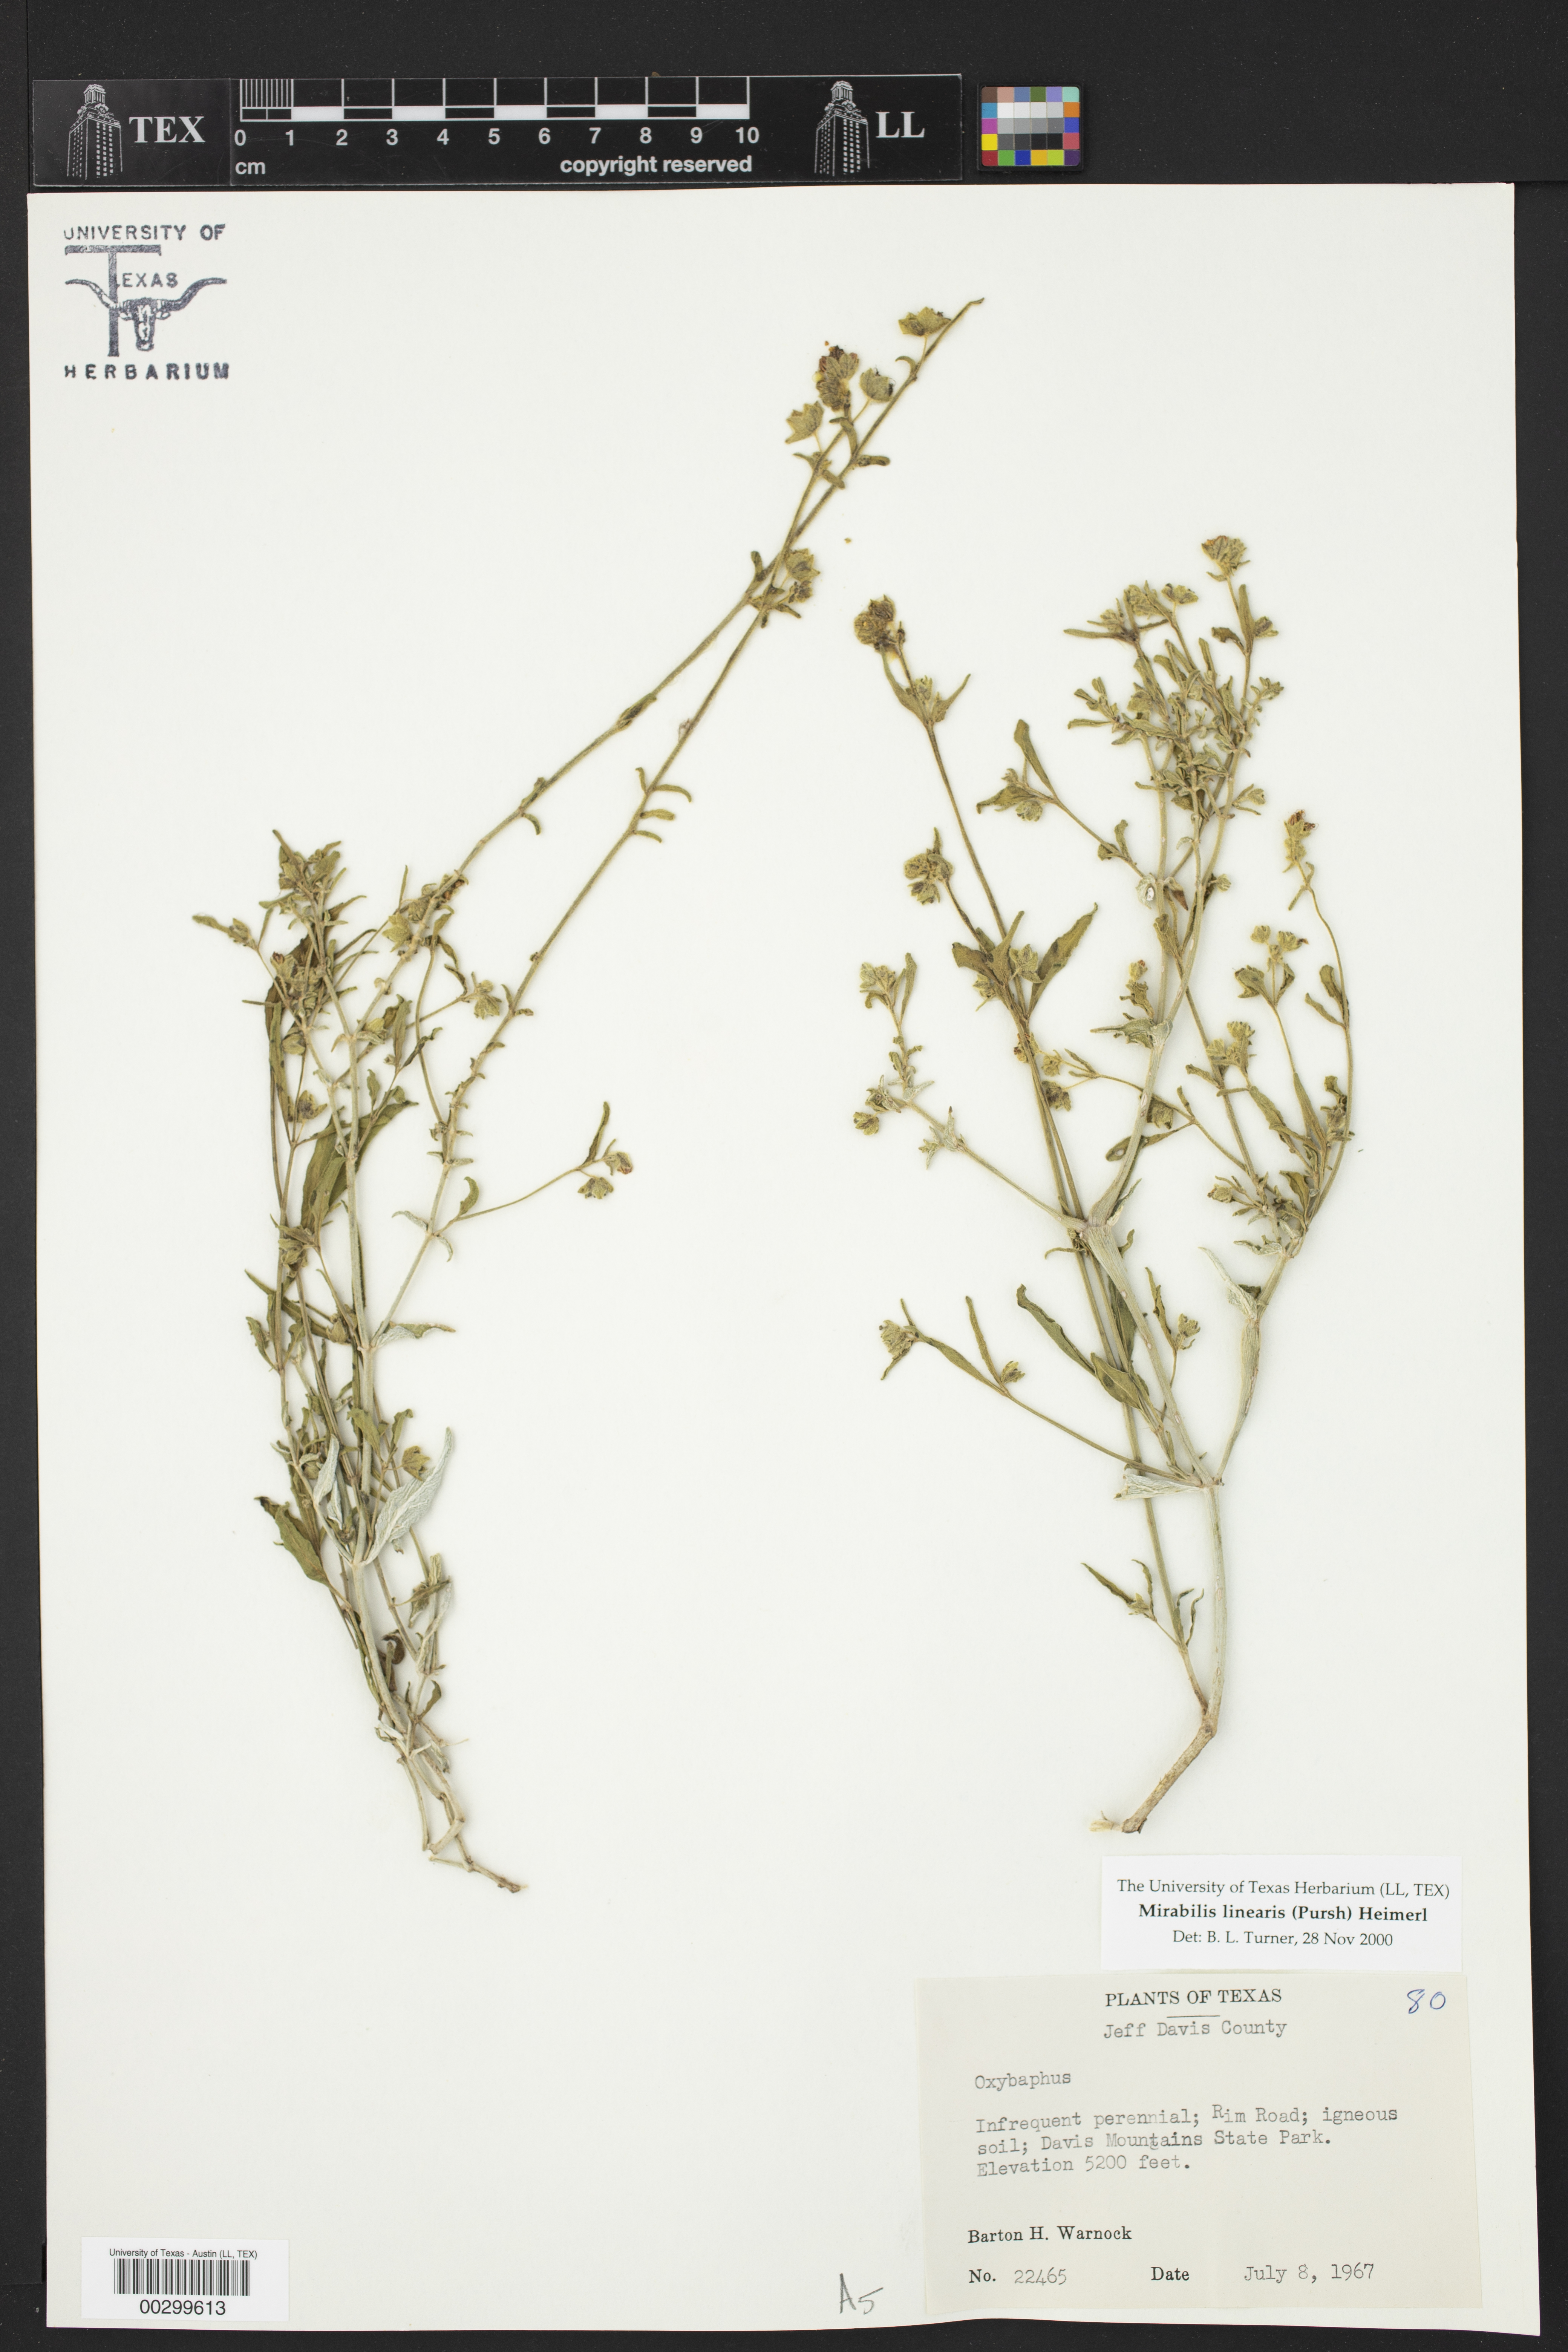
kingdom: Plantae
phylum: Tracheophyta
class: Magnoliopsida
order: Caryophyllales
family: Nyctaginaceae
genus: Mirabilis
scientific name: Mirabilis linearis
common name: Linear-leaved four-o'clock
